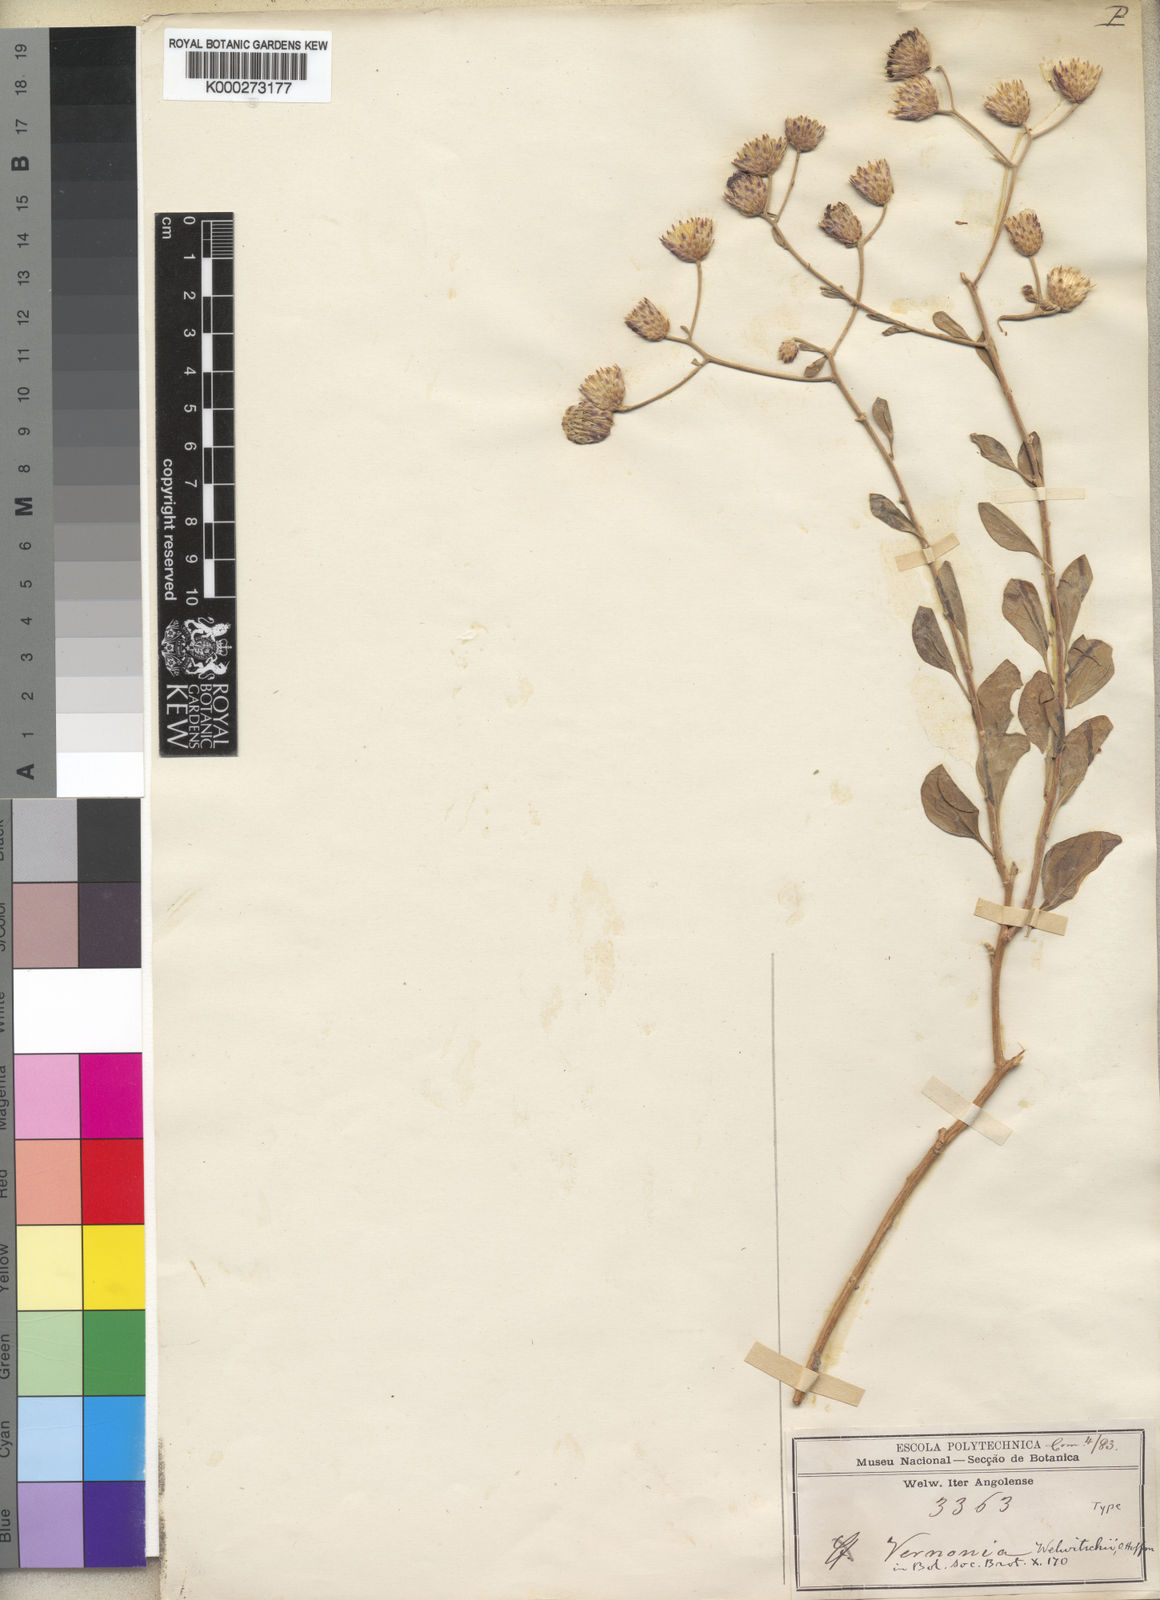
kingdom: Plantae
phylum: Tracheophyta
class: Magnoliopsida
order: Asterales
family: Asteraceae
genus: Vernonia
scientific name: Vernonia welwitschii
